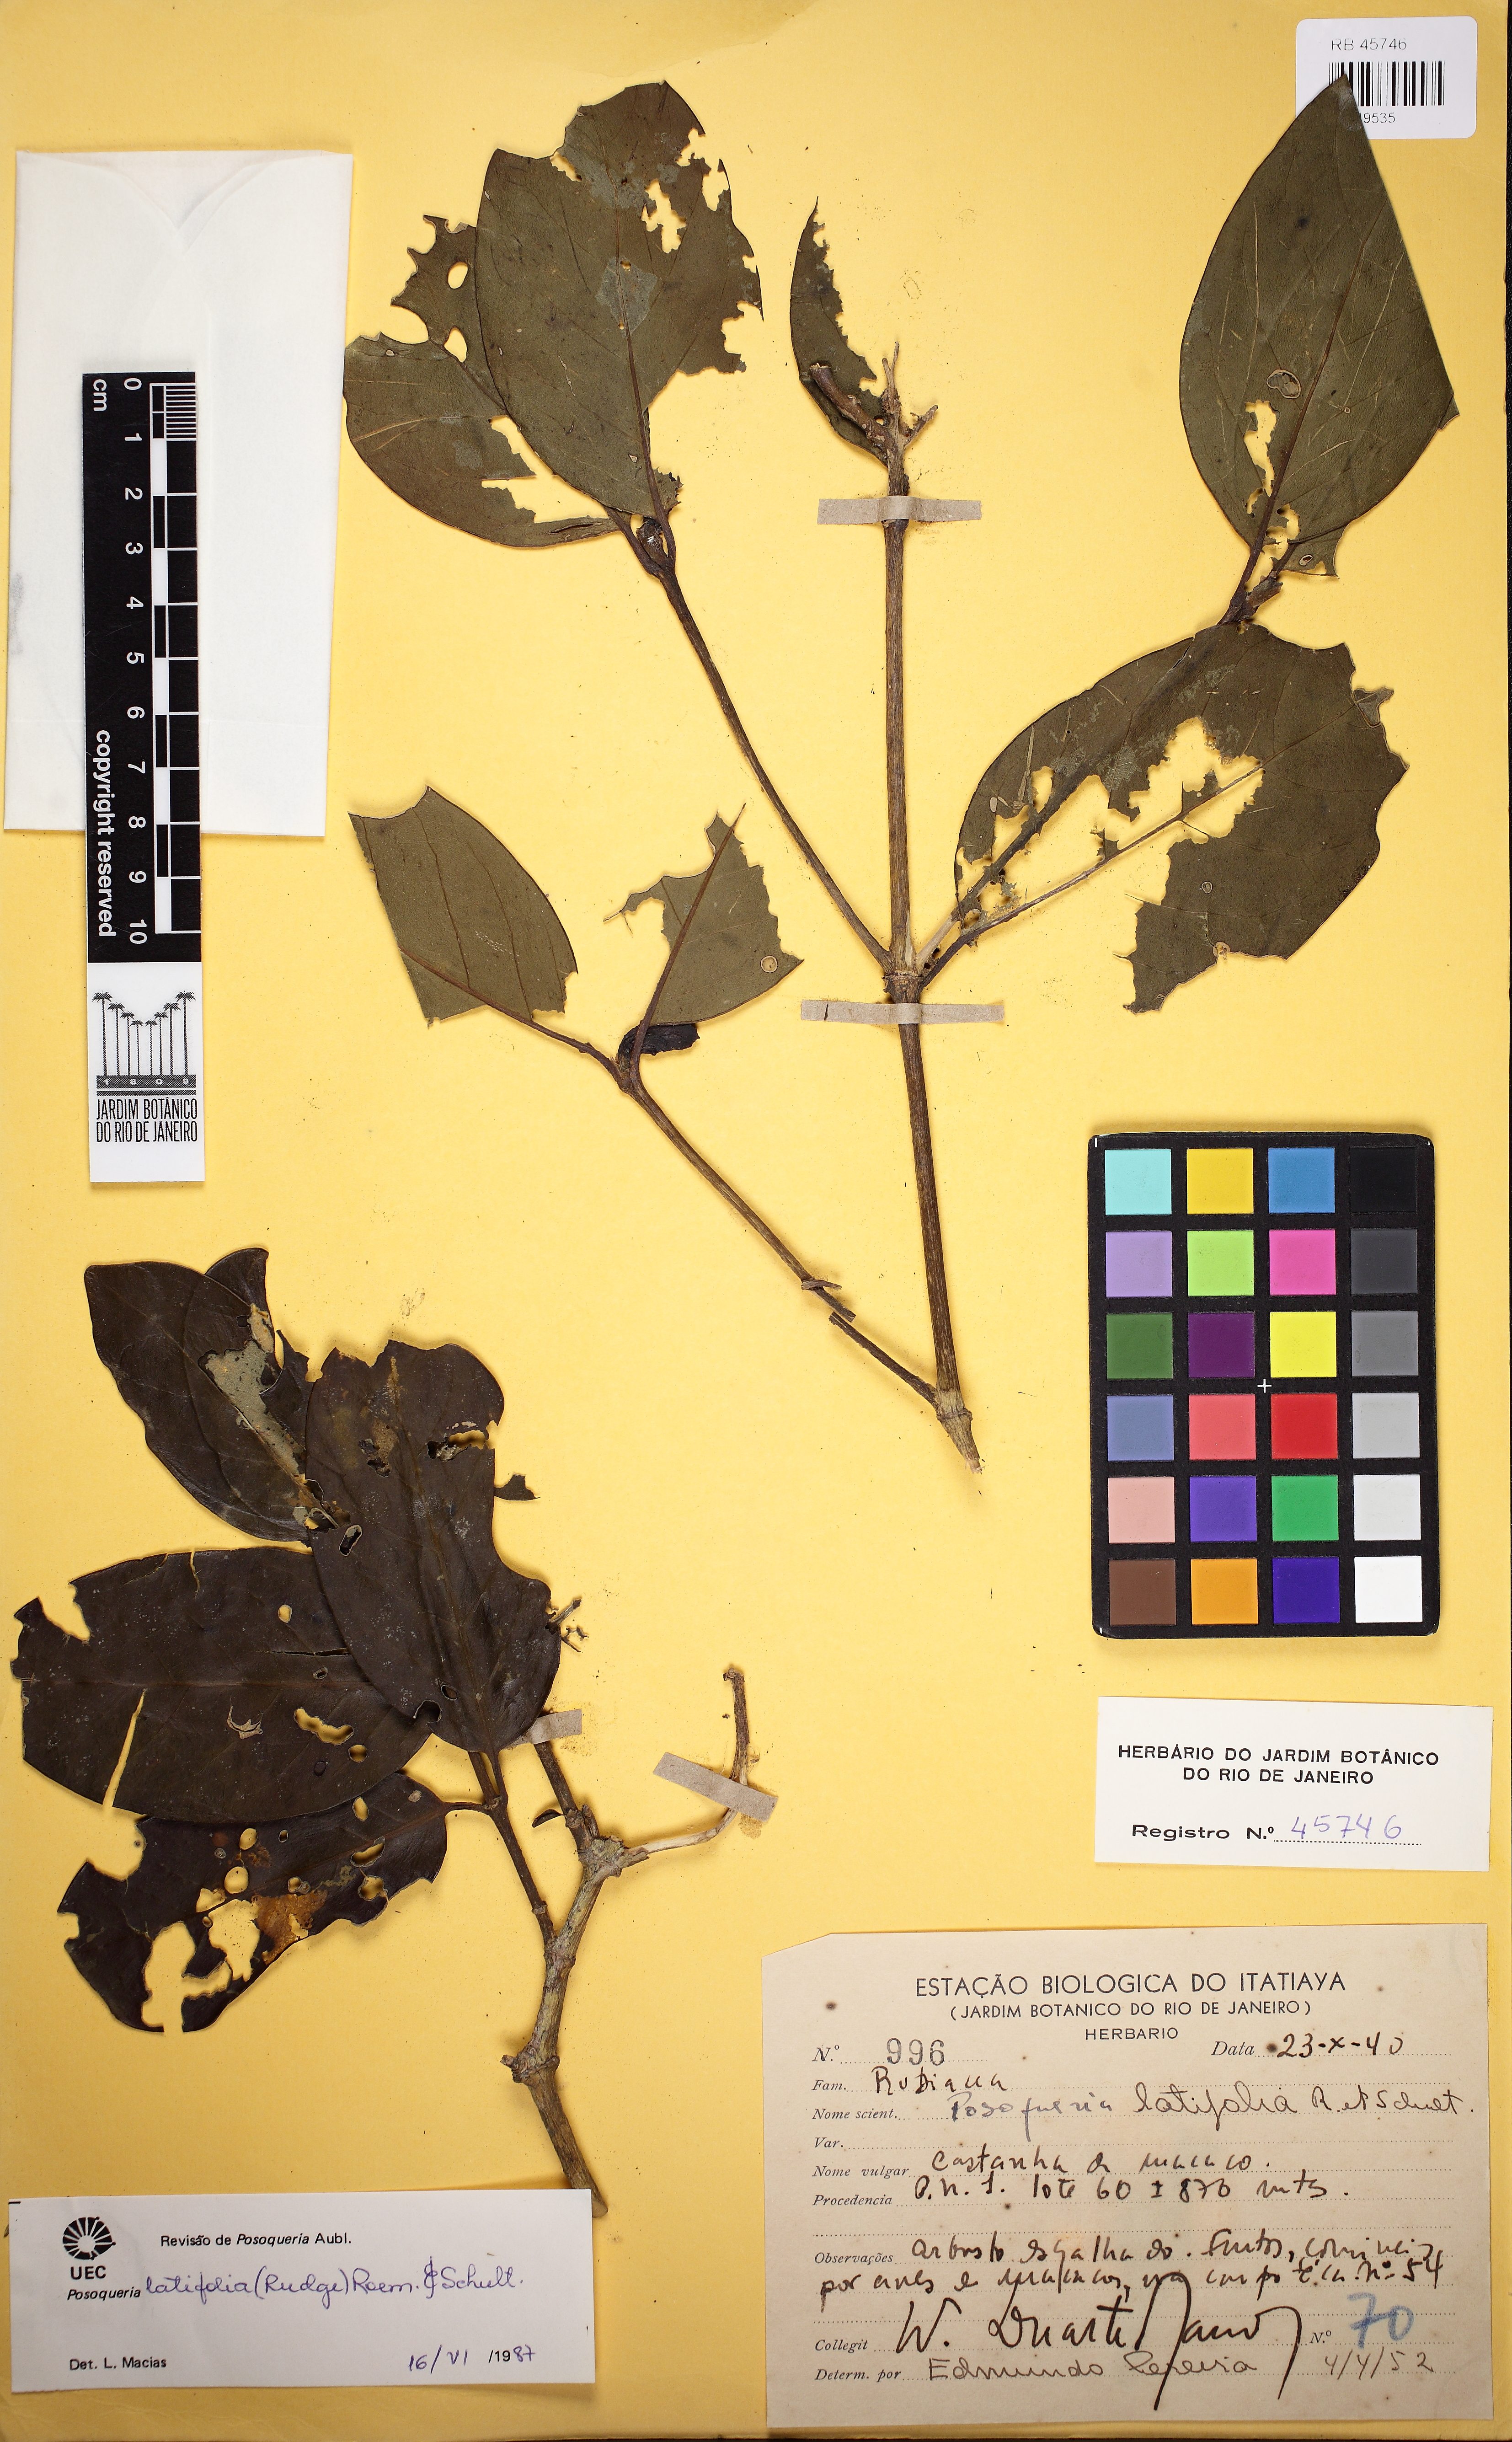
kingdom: Plantae
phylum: Tracheophyta
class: Magnoliopsida
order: Gentianales
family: Rubiaceae
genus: Posoqueria
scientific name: Posoqueria latifolia
